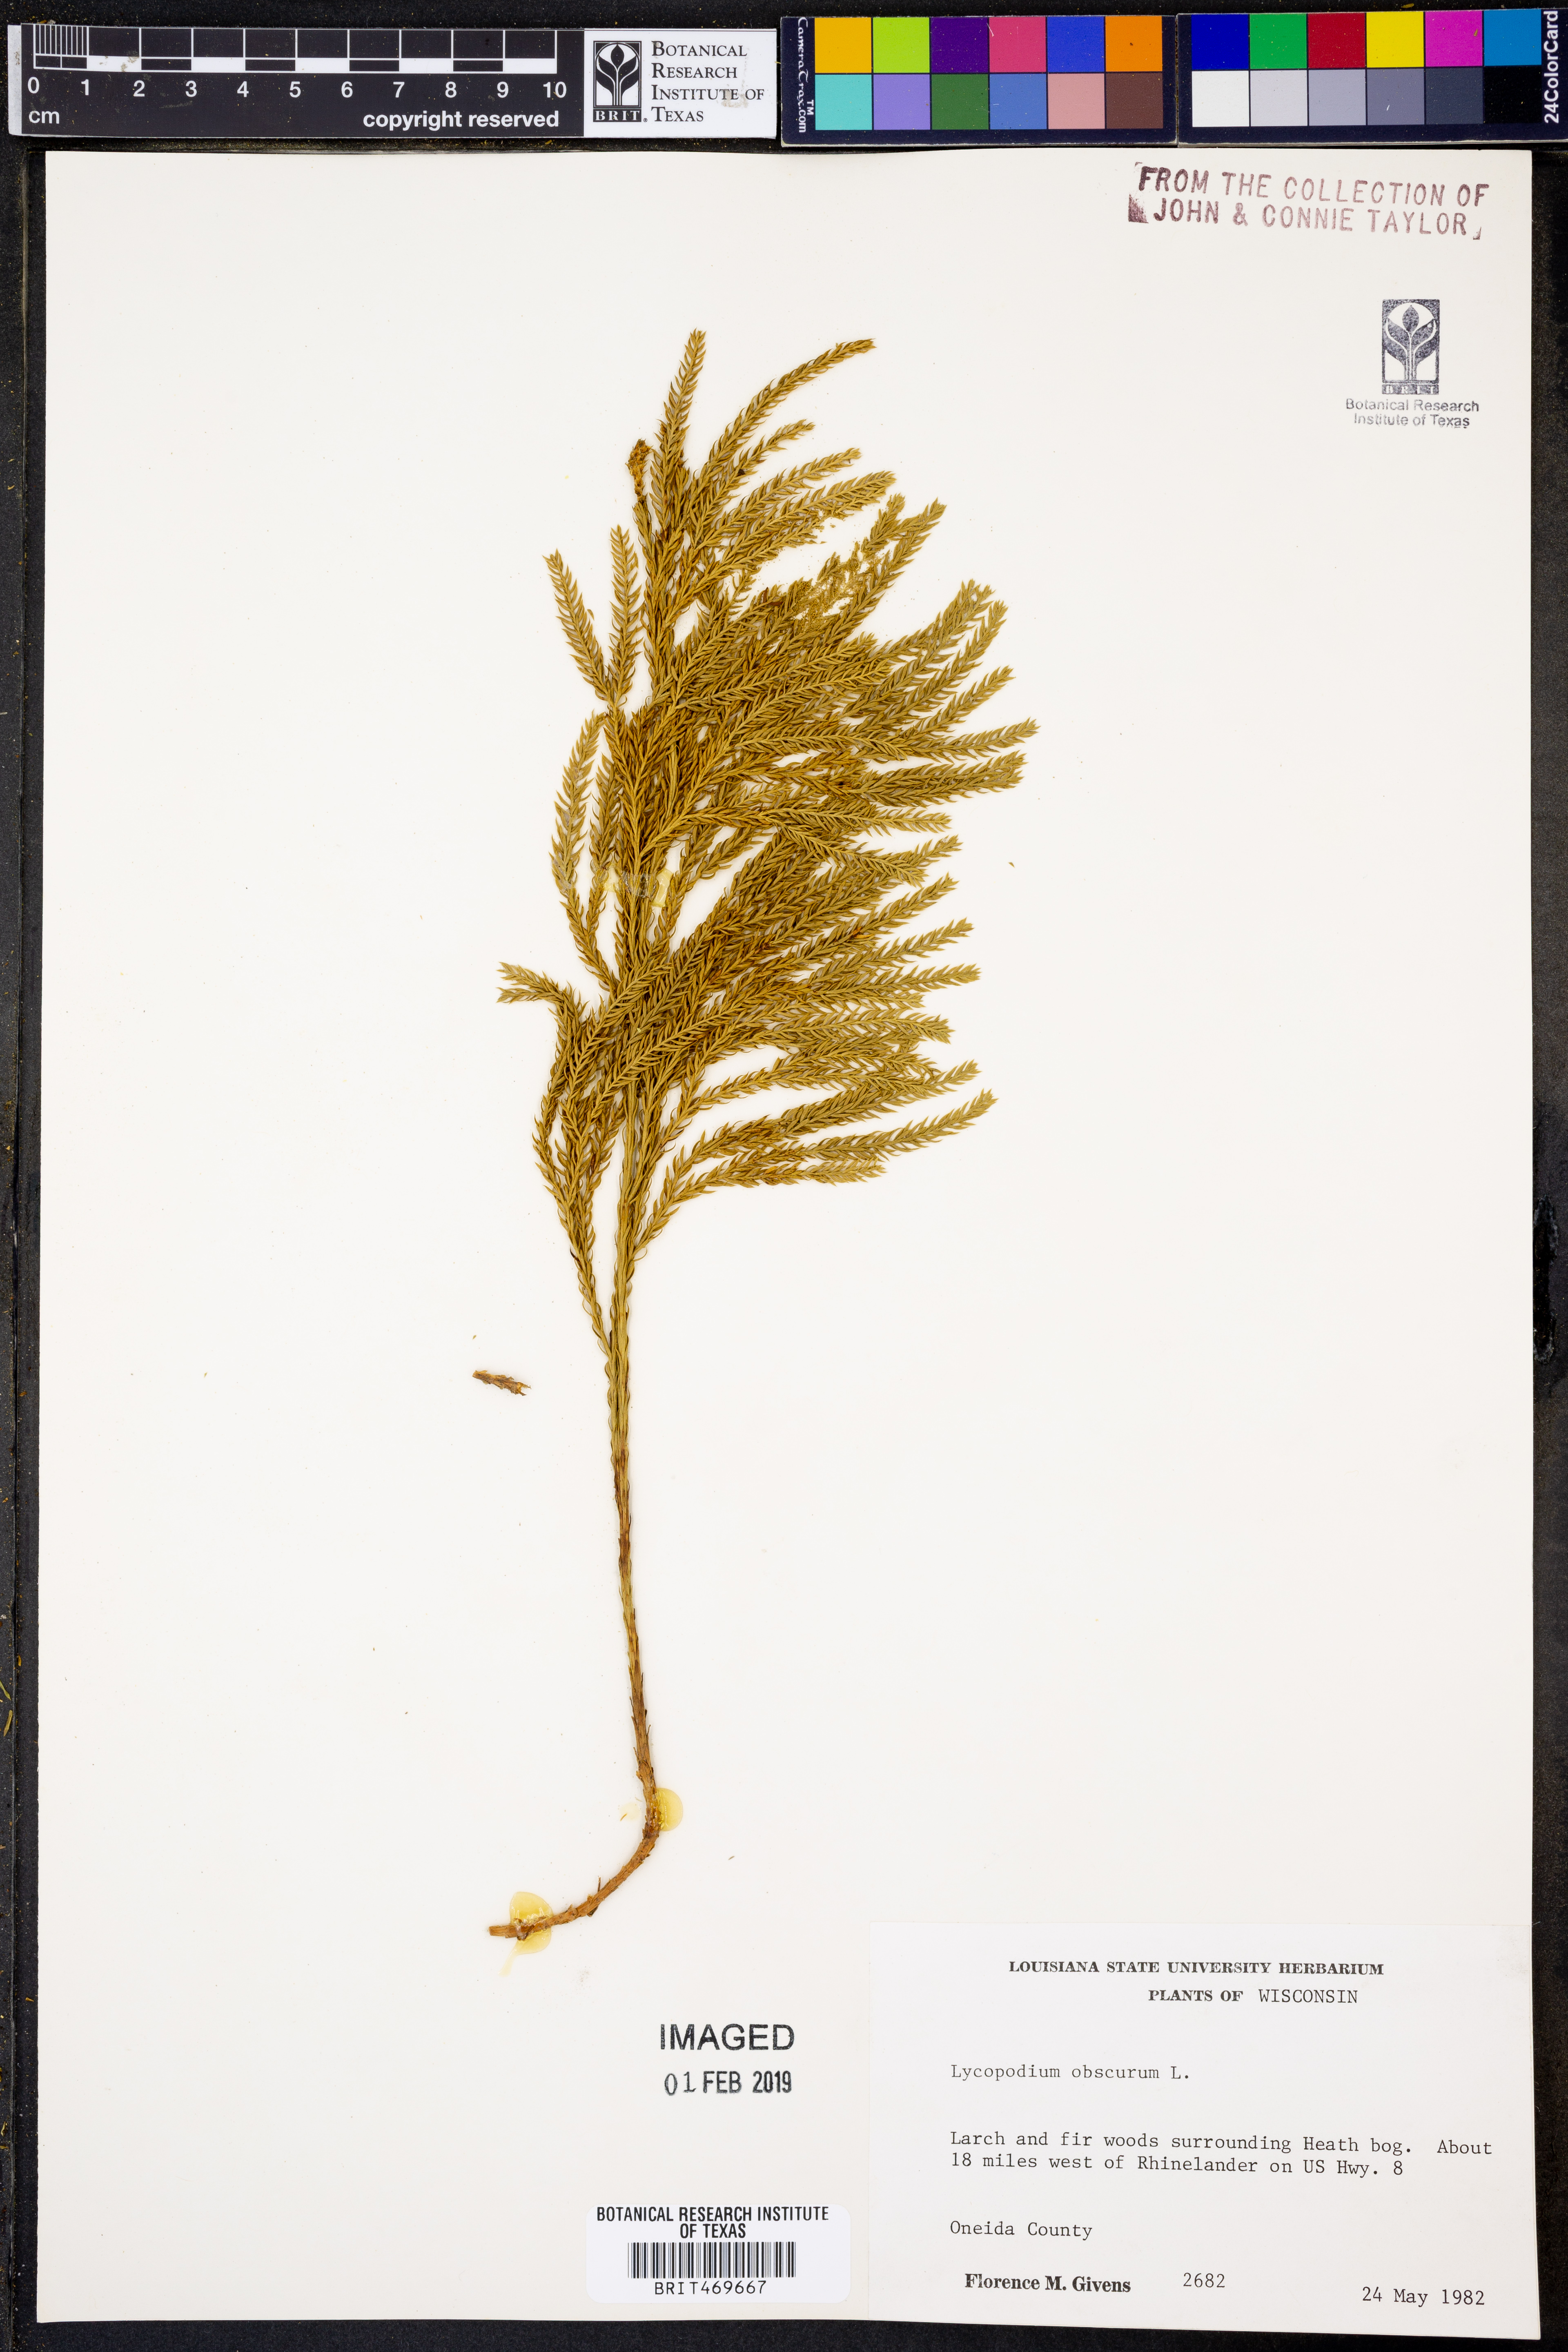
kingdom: Plantae
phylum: Tracheophyta
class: Lycopodiopsida
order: Lycopodiales
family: Lycopodiaceae
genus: Dendrolycopodium
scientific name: Dendrolycopodium obscurum
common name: Common ground-pine
